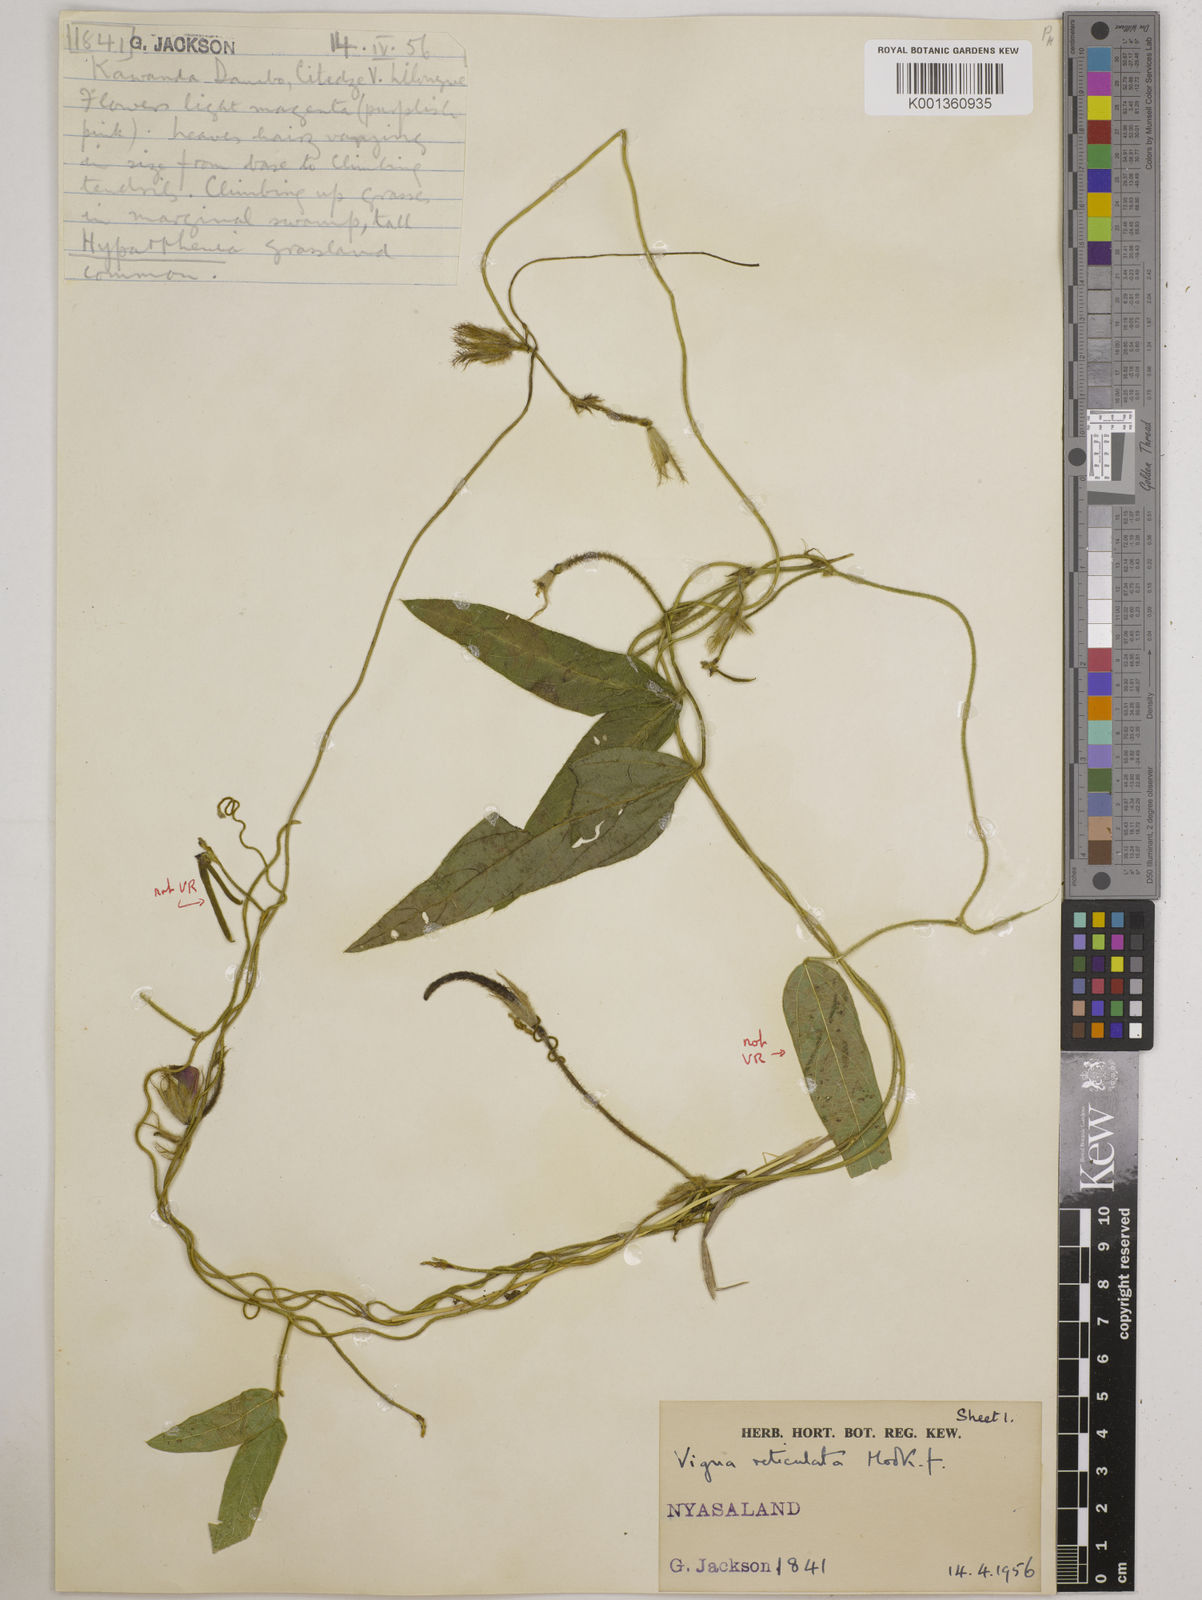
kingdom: Plantae
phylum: Tracheophyta
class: Magnoliopsida
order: Fabales
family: Fabaceae
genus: Vigna
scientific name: Vigna reticulata
